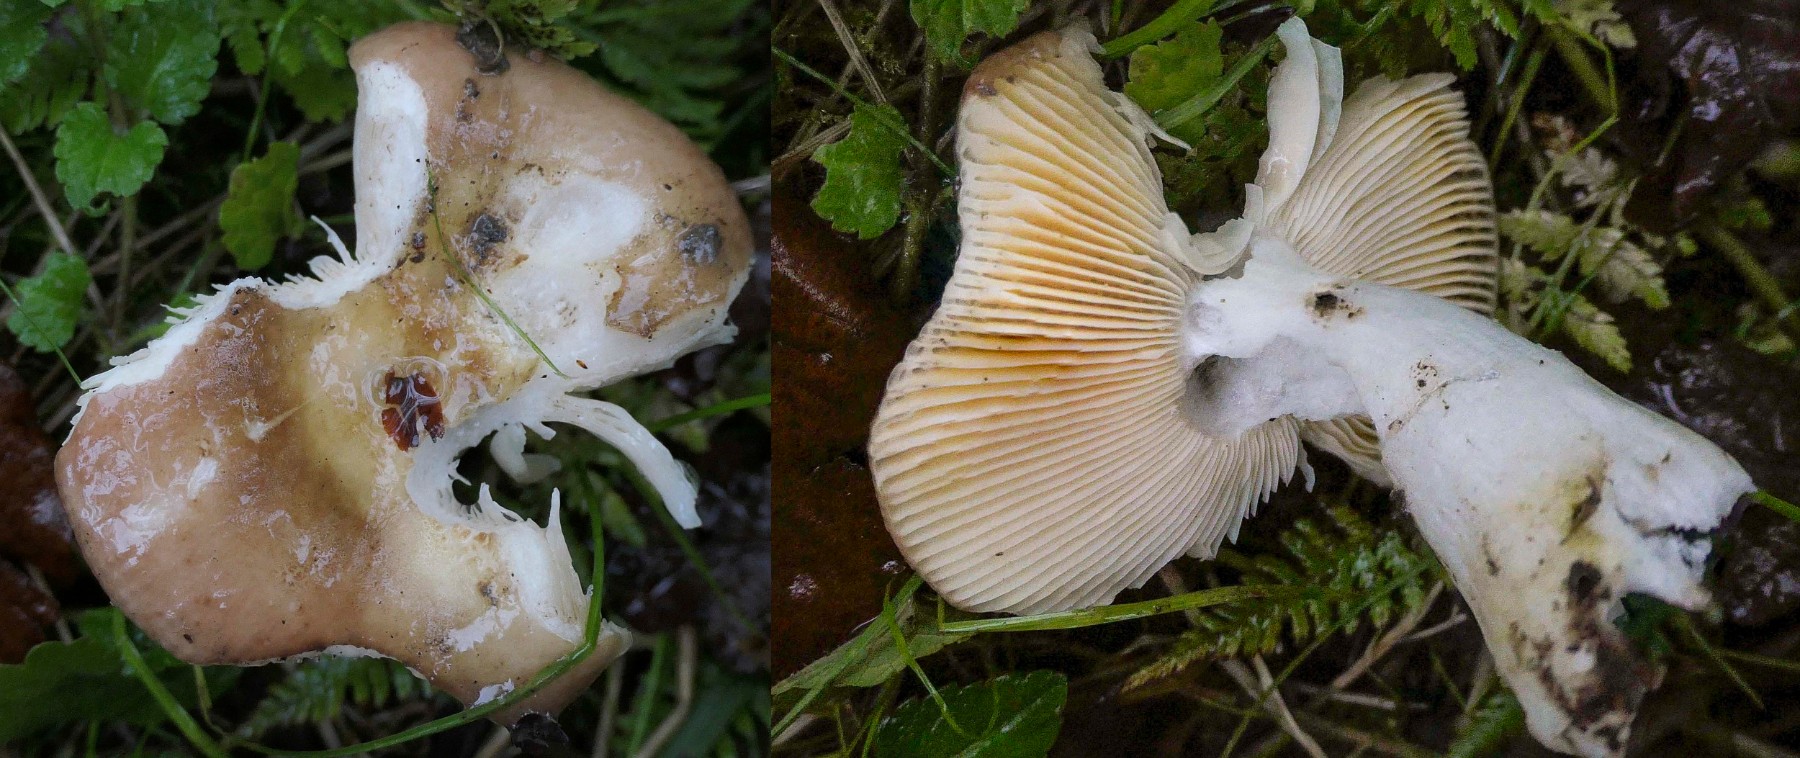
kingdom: Fungi
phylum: Basidiomycota
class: Agaricomycetes
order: Russulales
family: Russulaceae
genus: Russula
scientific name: Russula
